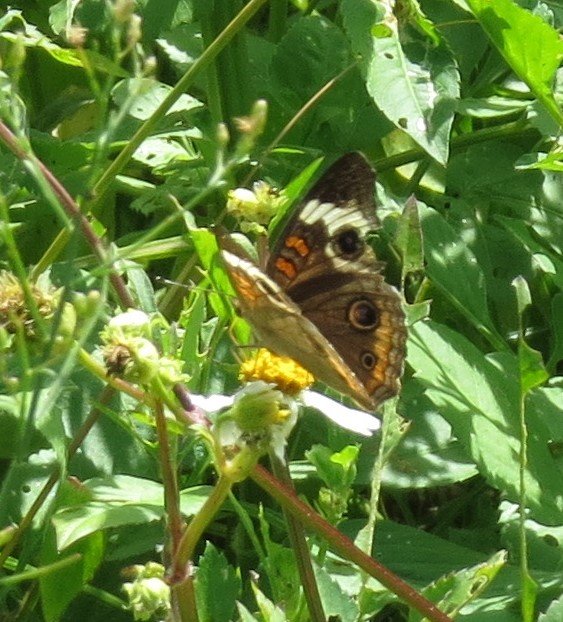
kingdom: Animalia
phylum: Arthropoda
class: Insecta
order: Lepidoptera
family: Nymphalidae
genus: Junonia
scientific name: Junonia coenia
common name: Common Buckeye
